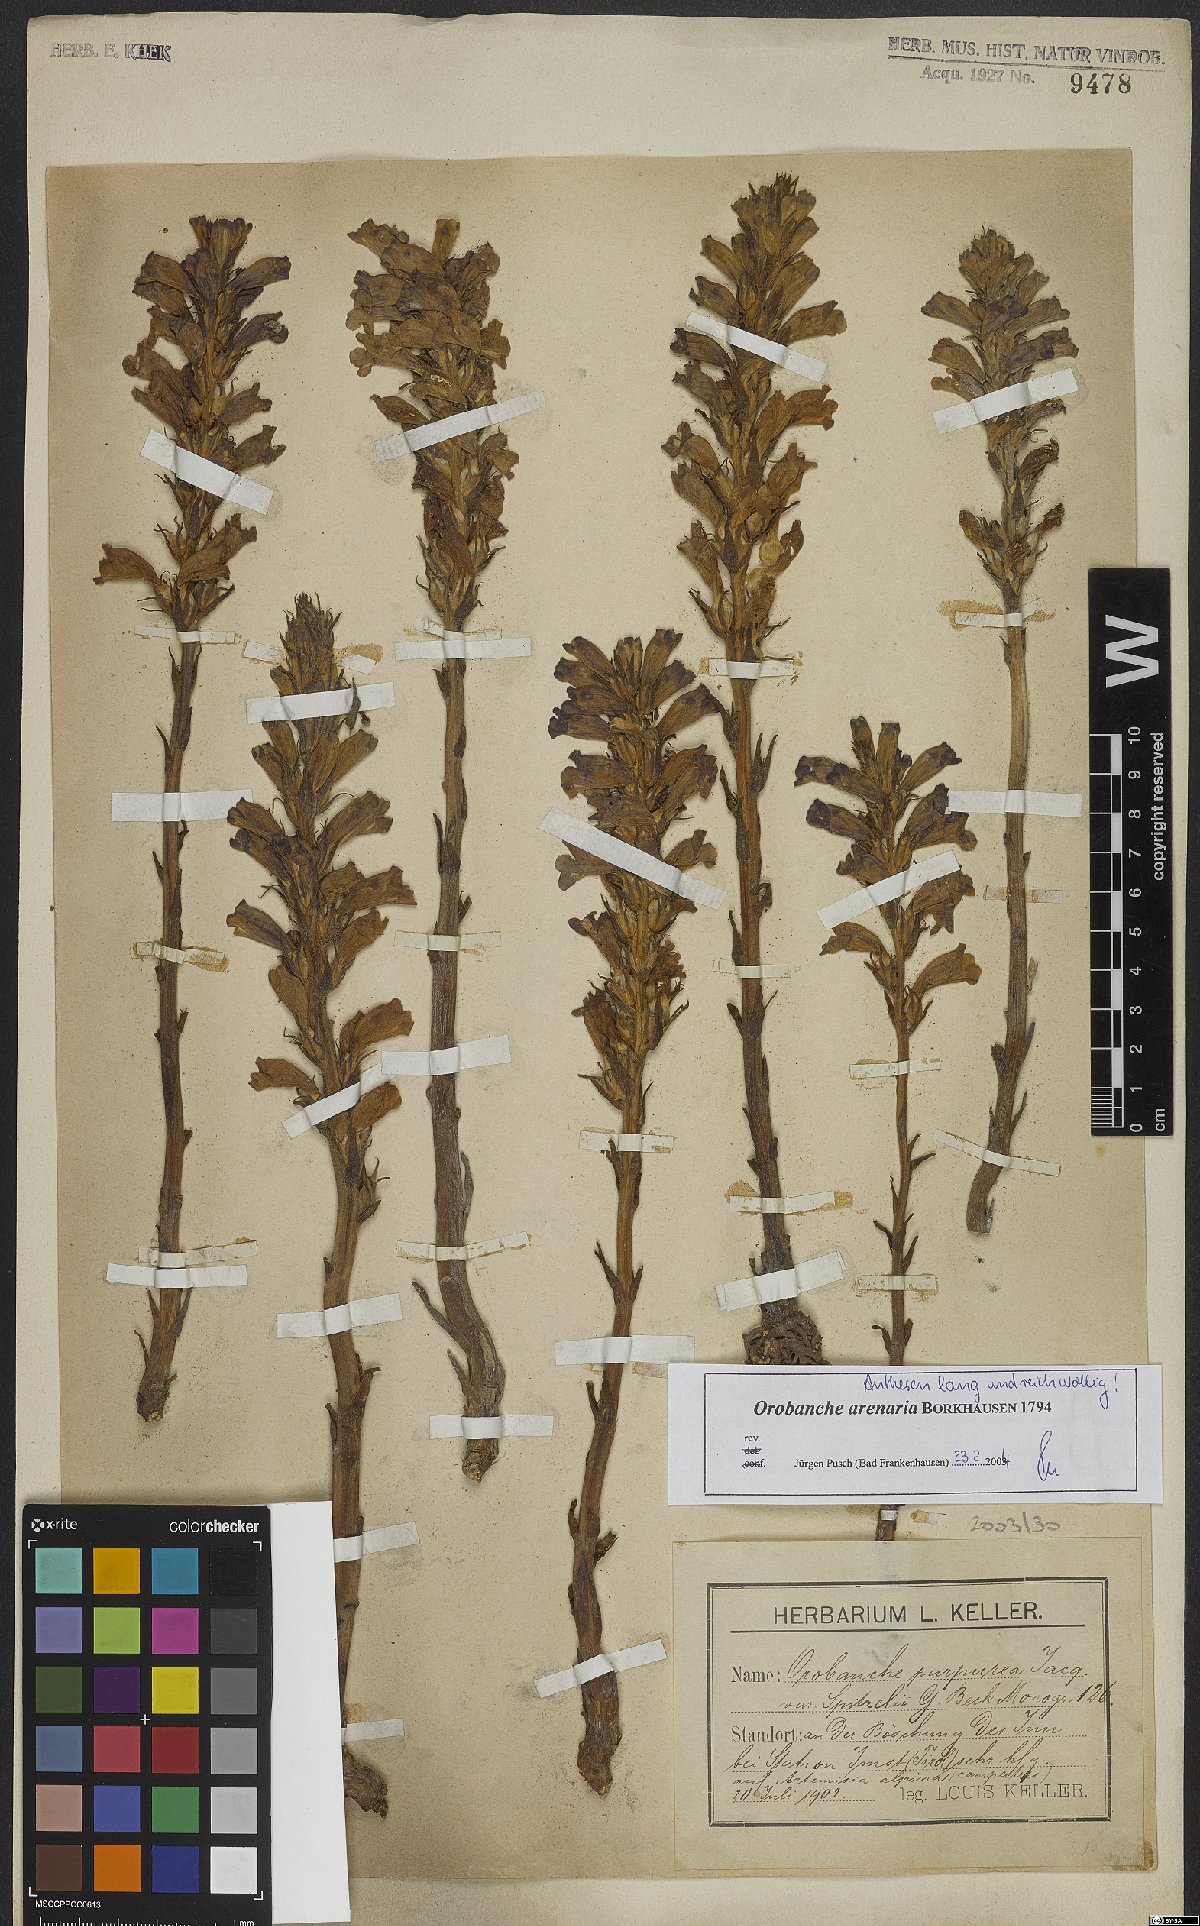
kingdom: Plantae
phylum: Tracheophyta
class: Magnoliopsida
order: Lamiales
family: Orobanchaceae
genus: Phelipanche
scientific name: Phelipanche arenaria
